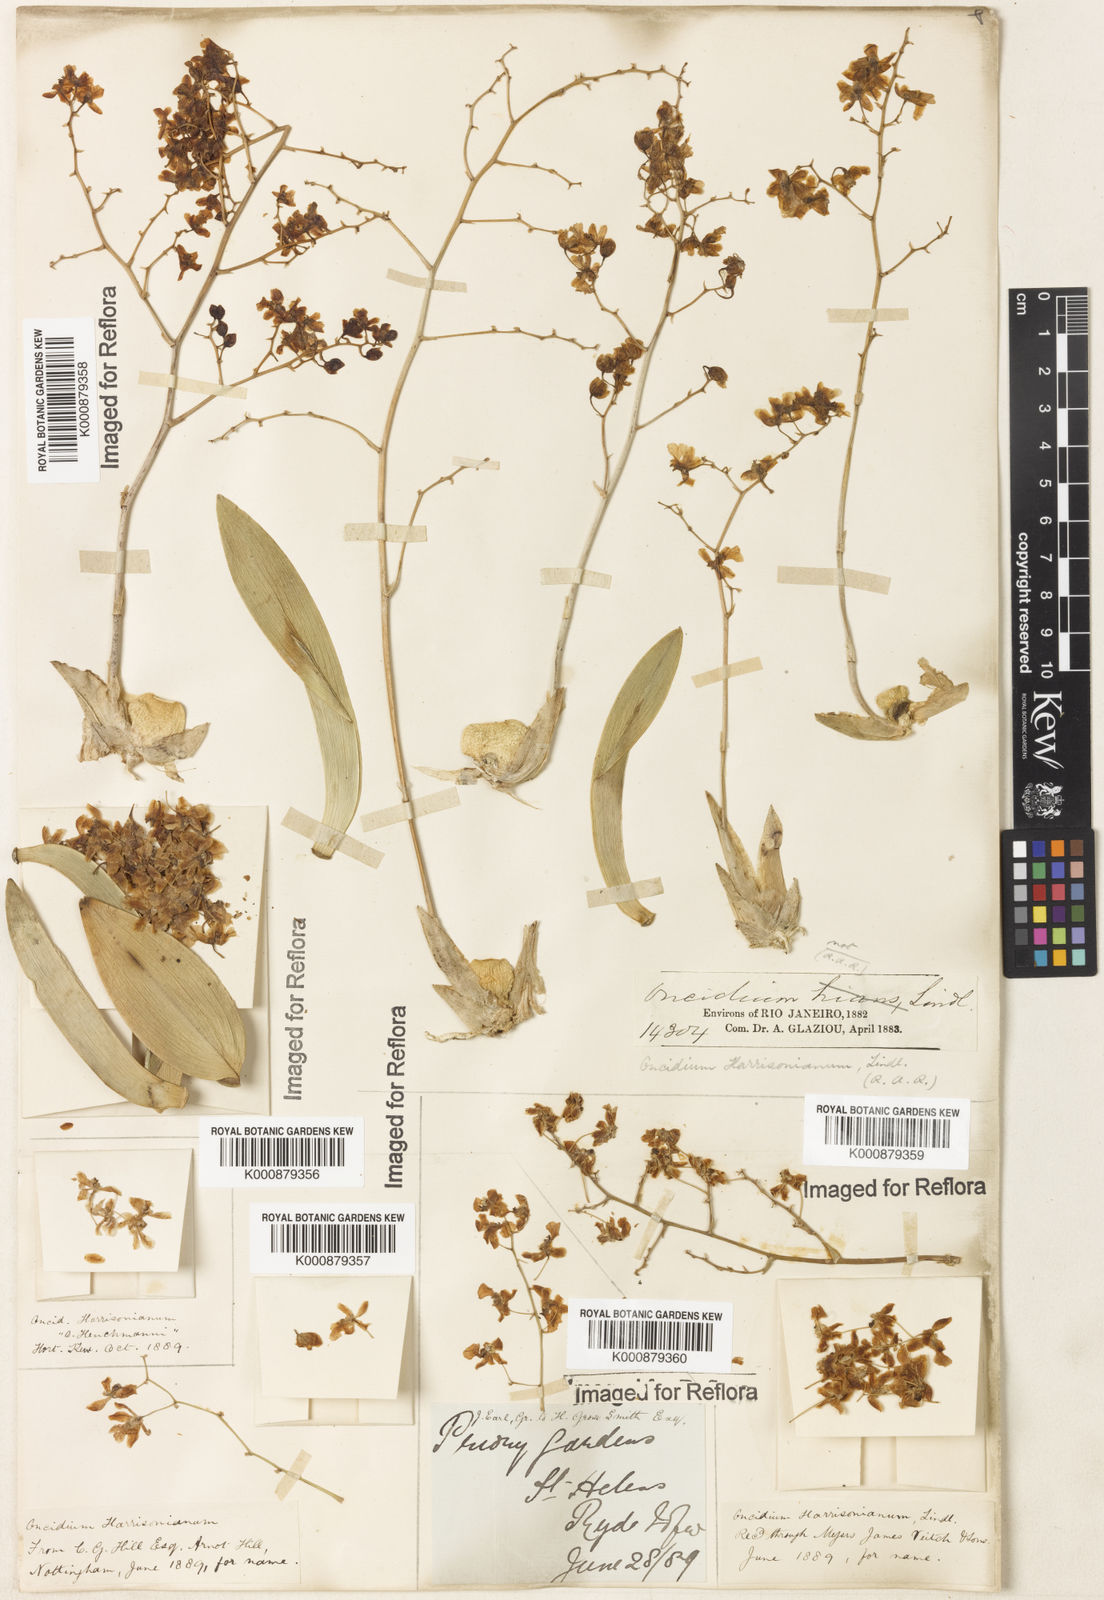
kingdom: Plantae
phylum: Tracheophyta
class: Liliopsida
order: Asparagales
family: Orchidaceae
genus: Grandiphyllum
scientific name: Grandiphyllum auricula
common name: Mule-ear orchid
